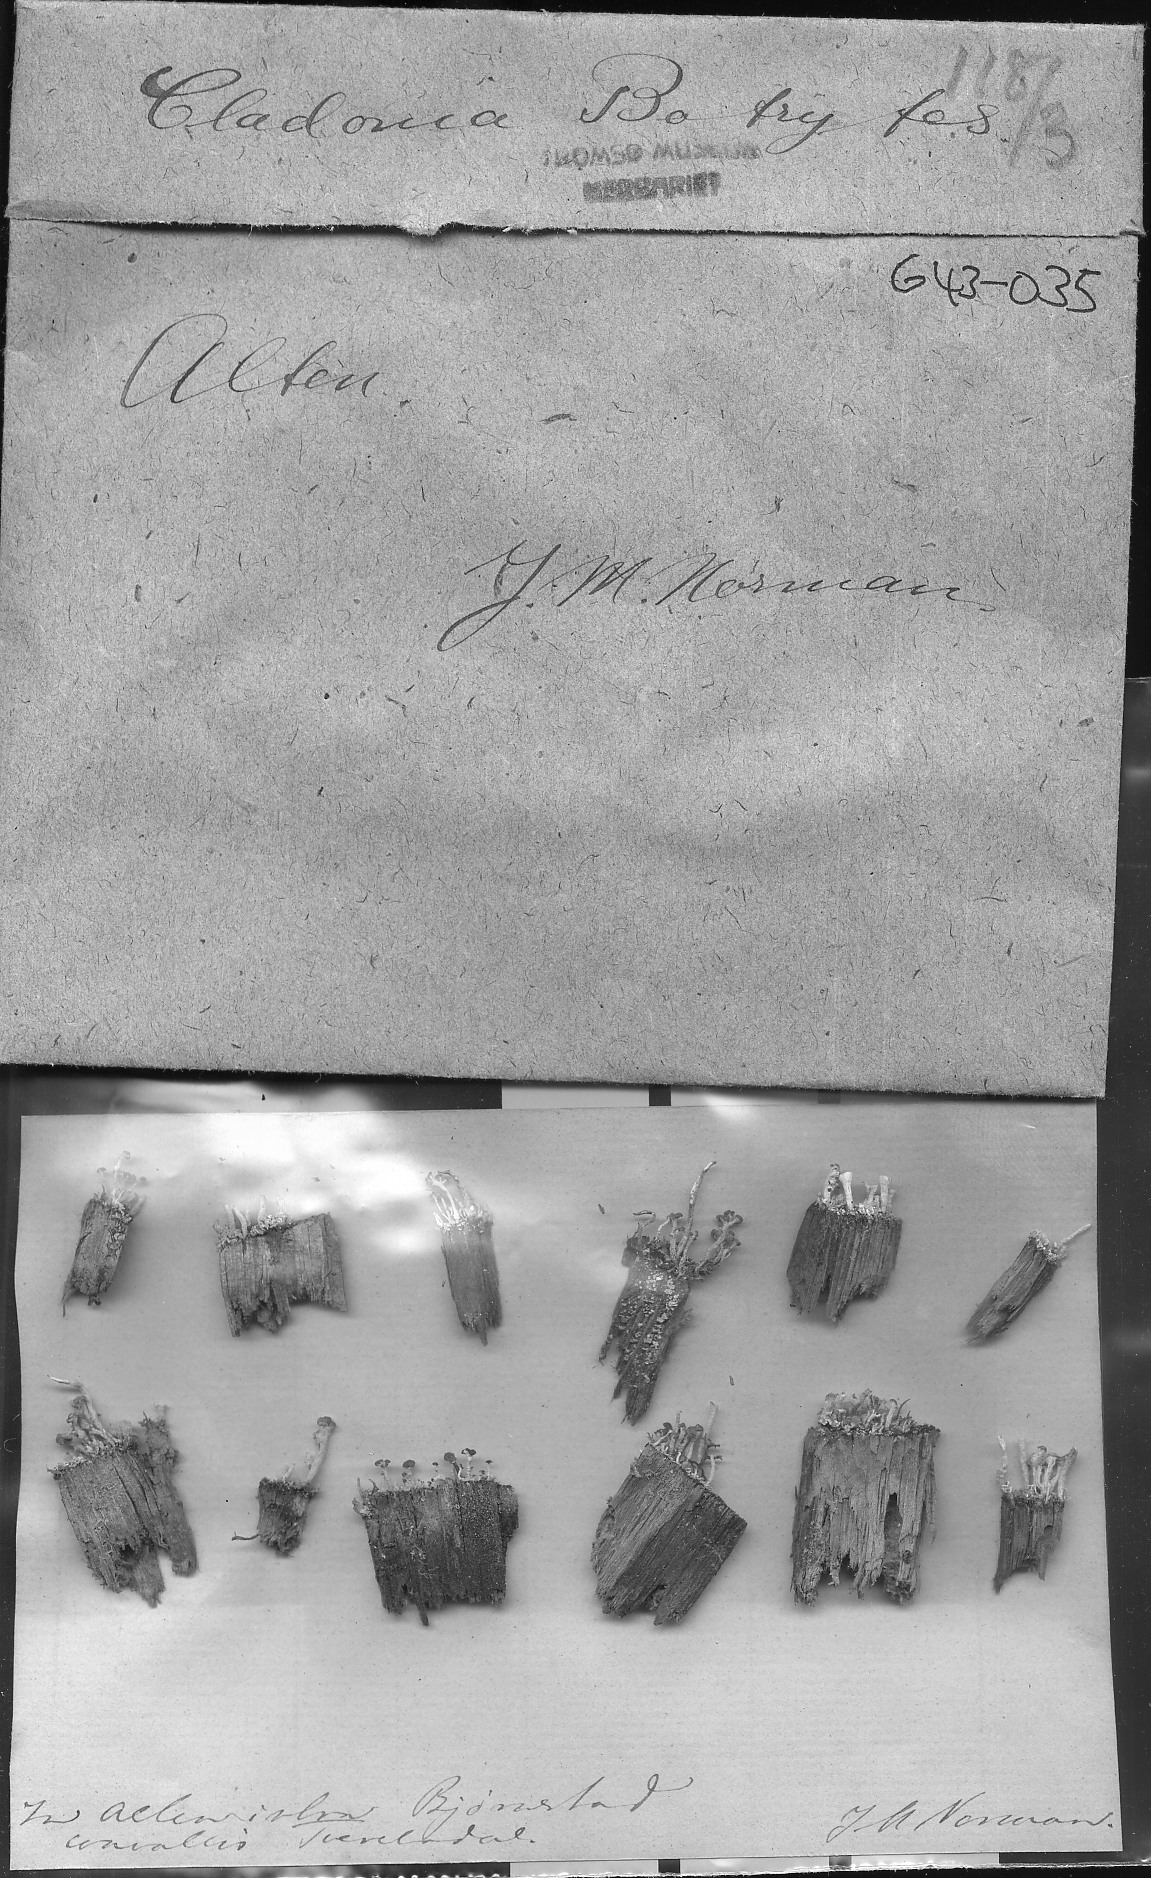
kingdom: Fungi
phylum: Ascomycota
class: Lecanoromycetes
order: Lecanorales
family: Cladoniaceae
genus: Cladonia
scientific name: Cladonia botrytes
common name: Stump lichen
